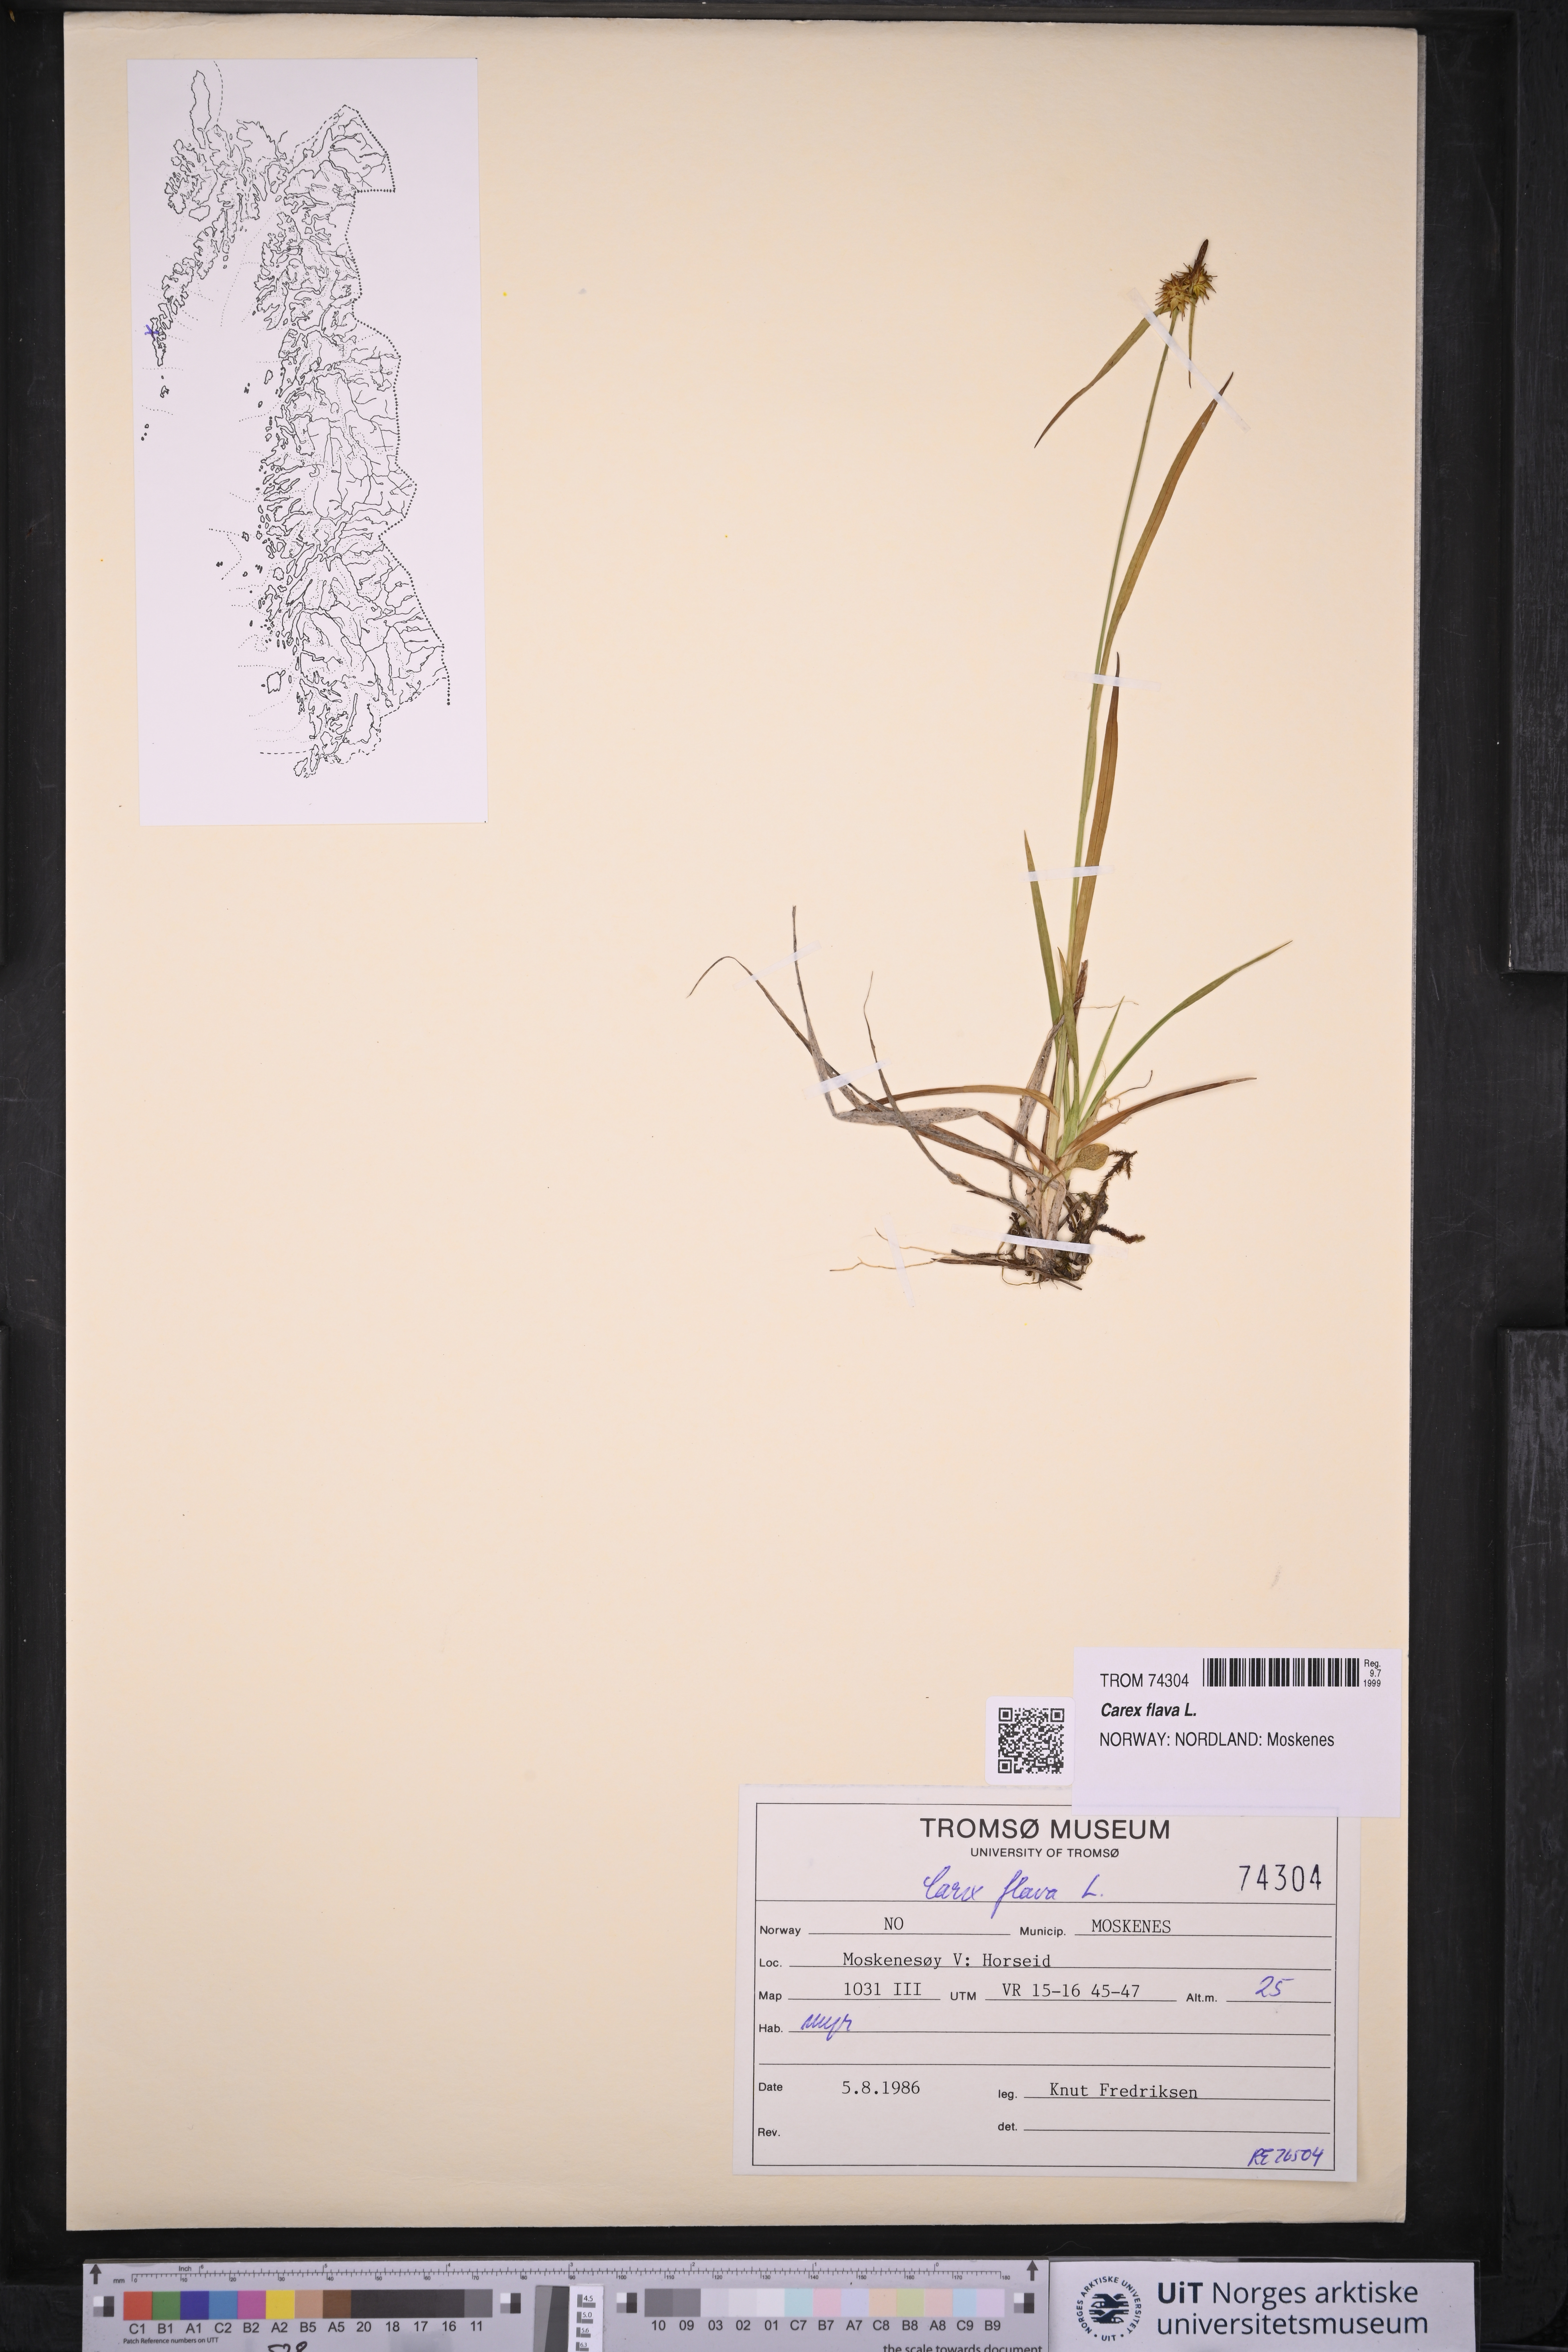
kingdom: Plantae
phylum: Tracheophyta
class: Liliopsida
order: Poales
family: Cyperaceae
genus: Carex
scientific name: Carex flava
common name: Large yellow-sedge
